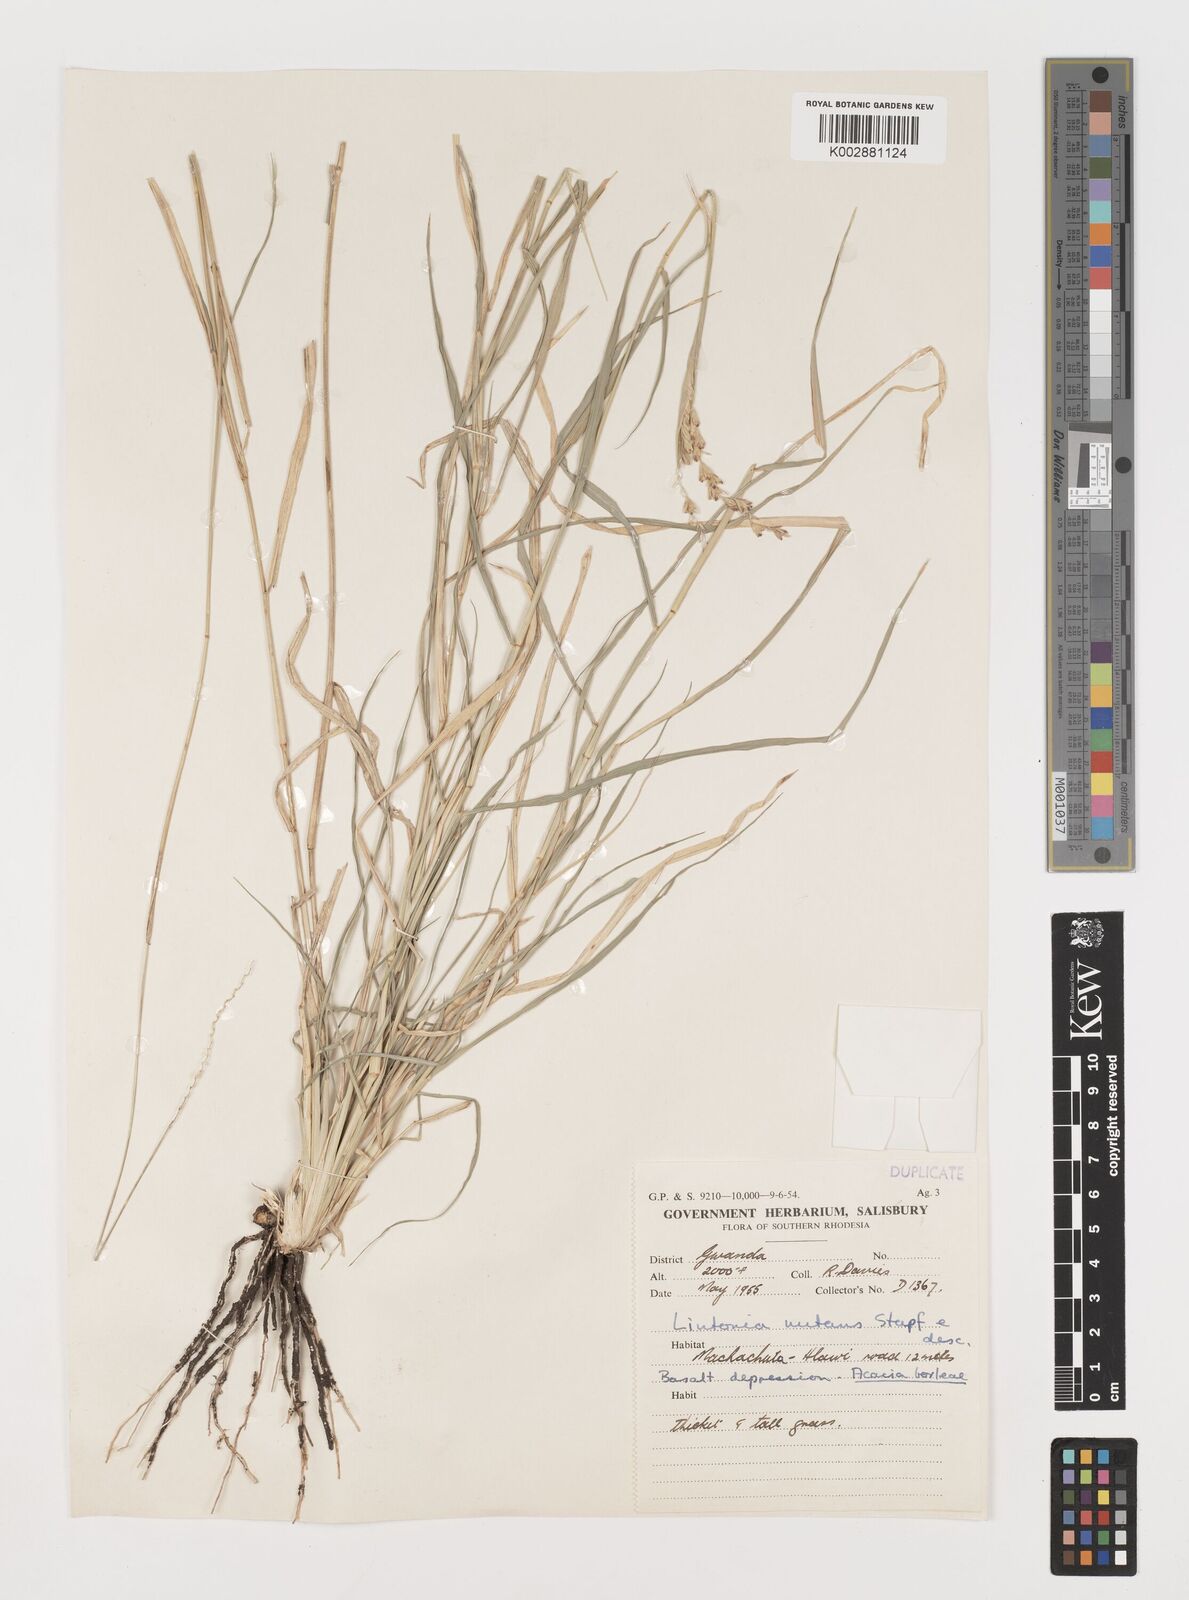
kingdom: Plantae
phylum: Tracheophyta
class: Liliopsida
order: Poales
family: Poaceae
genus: Chloris
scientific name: Chloris nutans
